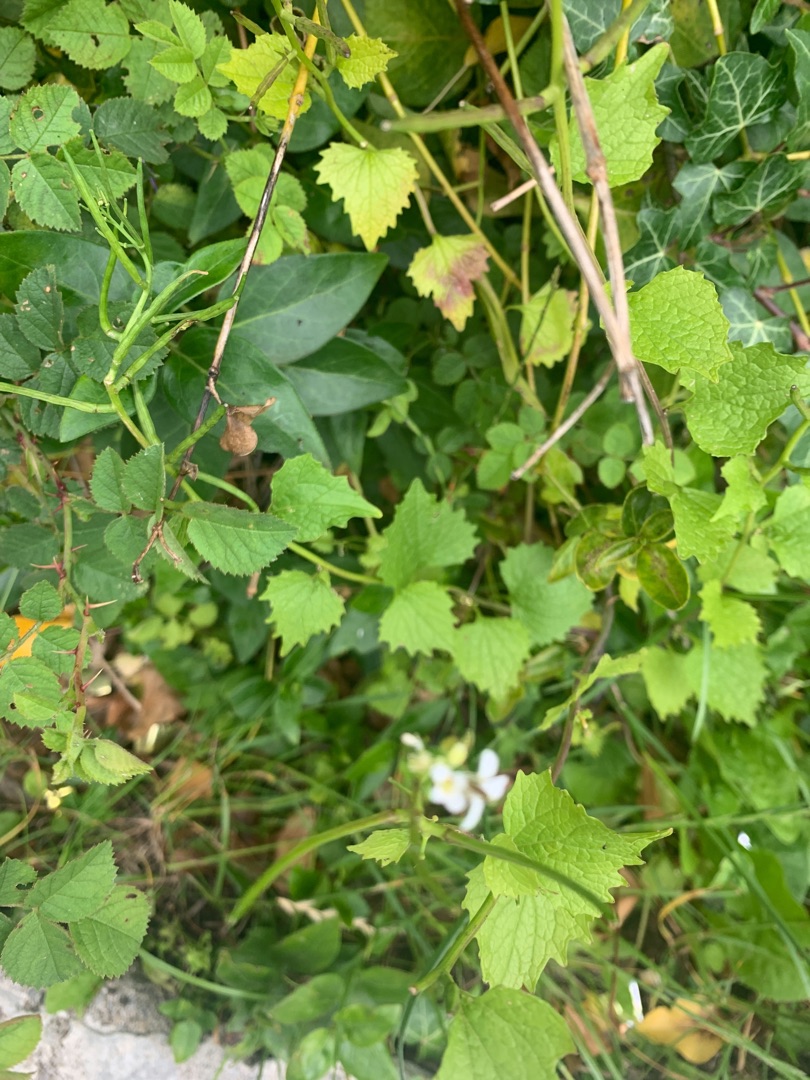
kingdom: Plantae
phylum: Tracheophyta
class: Magnoliopsida
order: Brassicales
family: Brassicaceae
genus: Alliaria
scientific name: Alliaria petiolata
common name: Løgkarse
